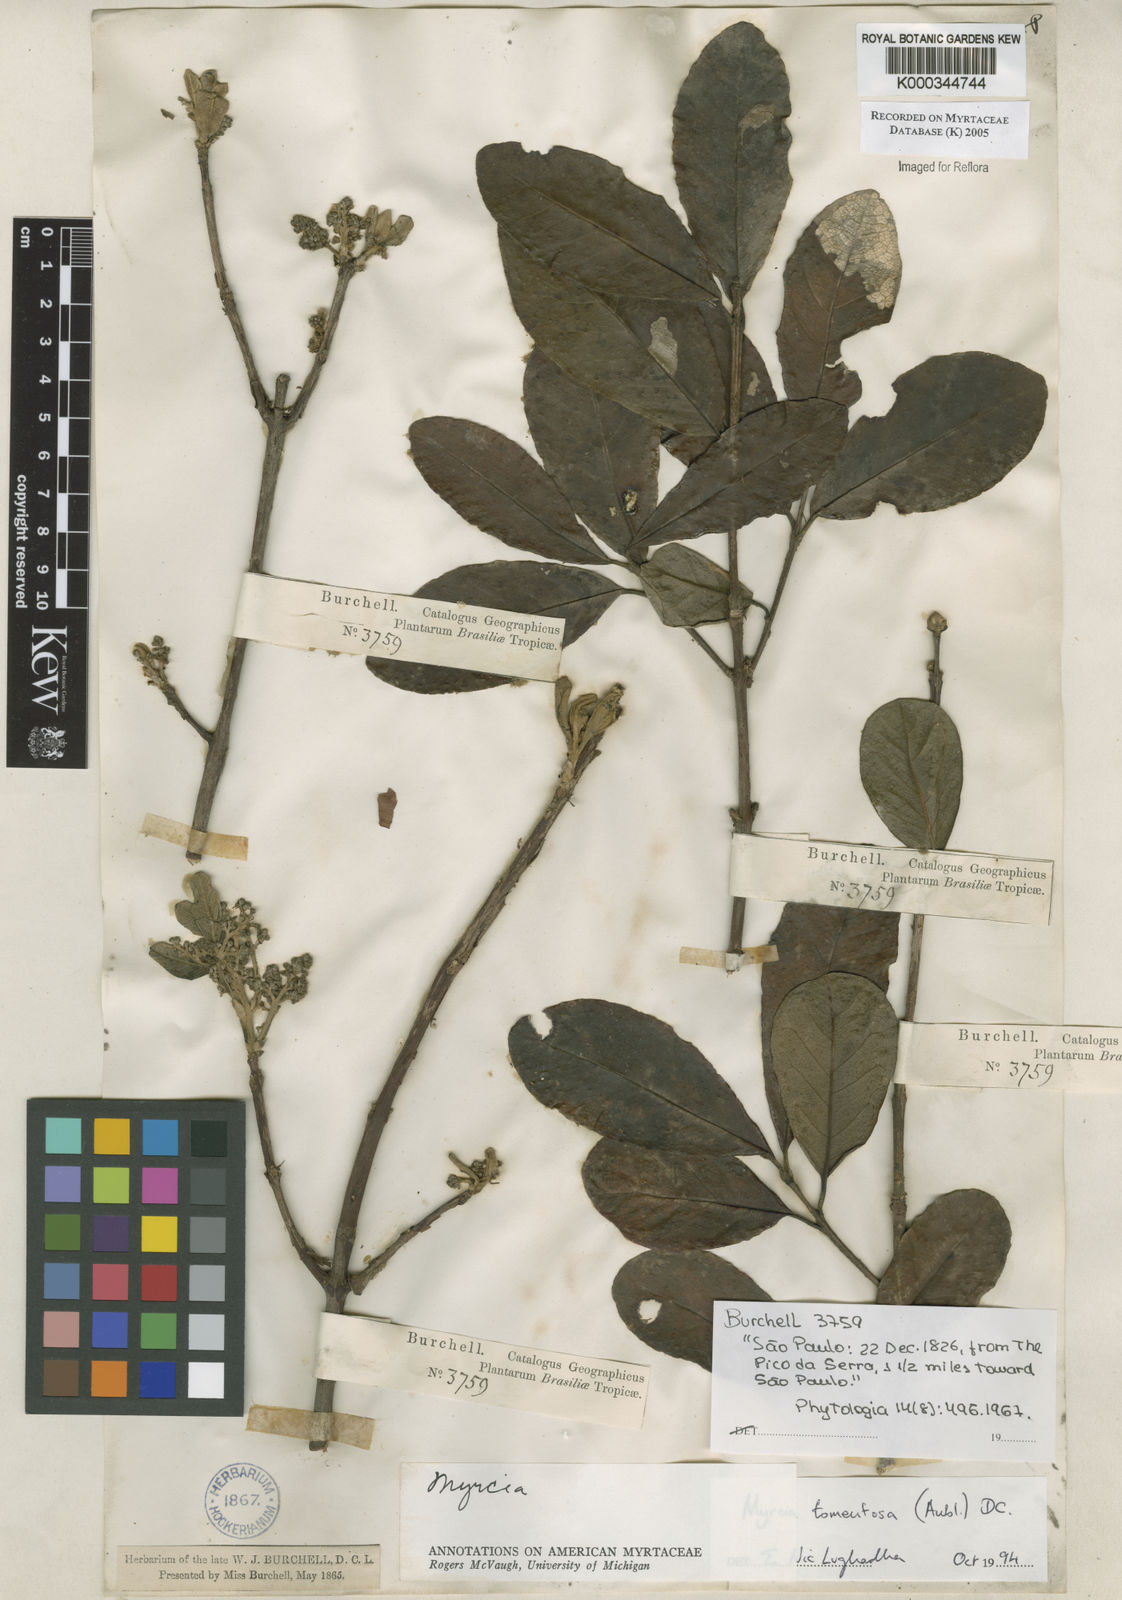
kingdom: Plantae
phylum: Tracheophyta
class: Magnoliopsida
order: Myrtales
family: Myrtaceae
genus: Myrcia
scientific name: Myrcia tomentosa
